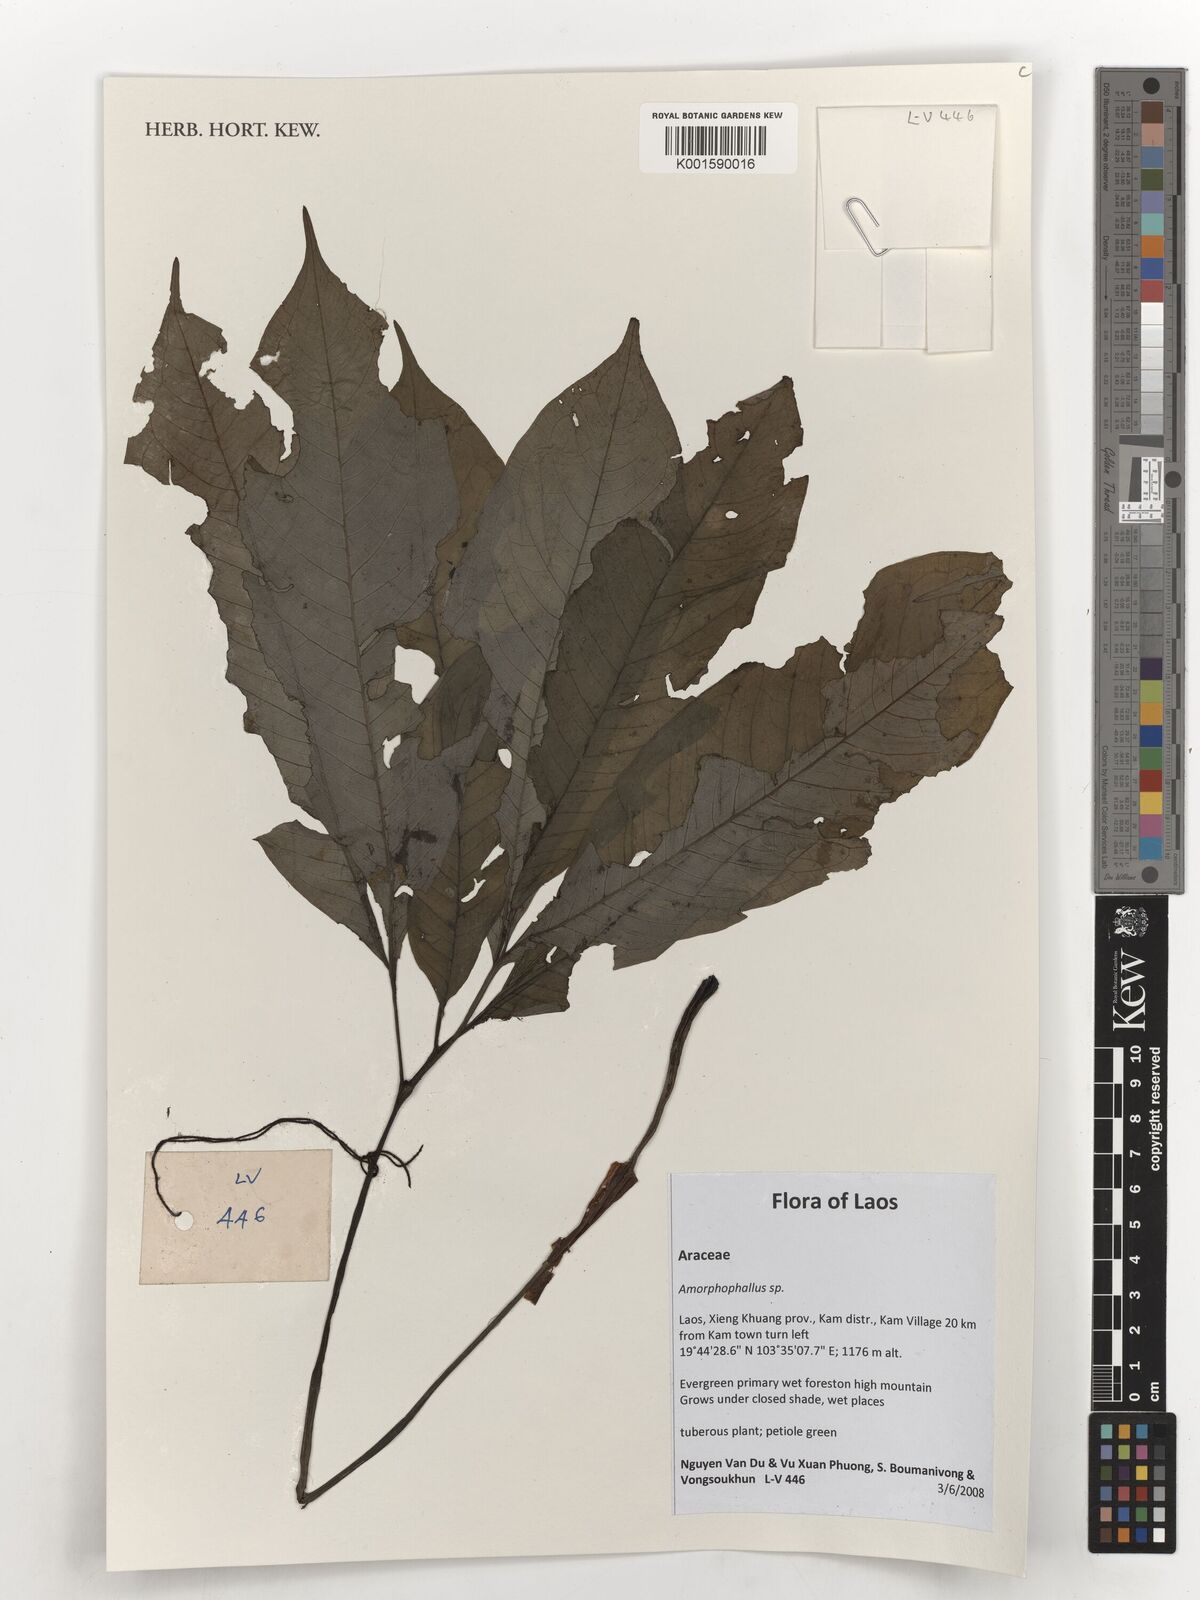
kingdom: Plantae
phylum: Tracheophyta
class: Liliopsida
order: Alismatales
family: Araceae
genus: Amorphophallus
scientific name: Amorphophallus
